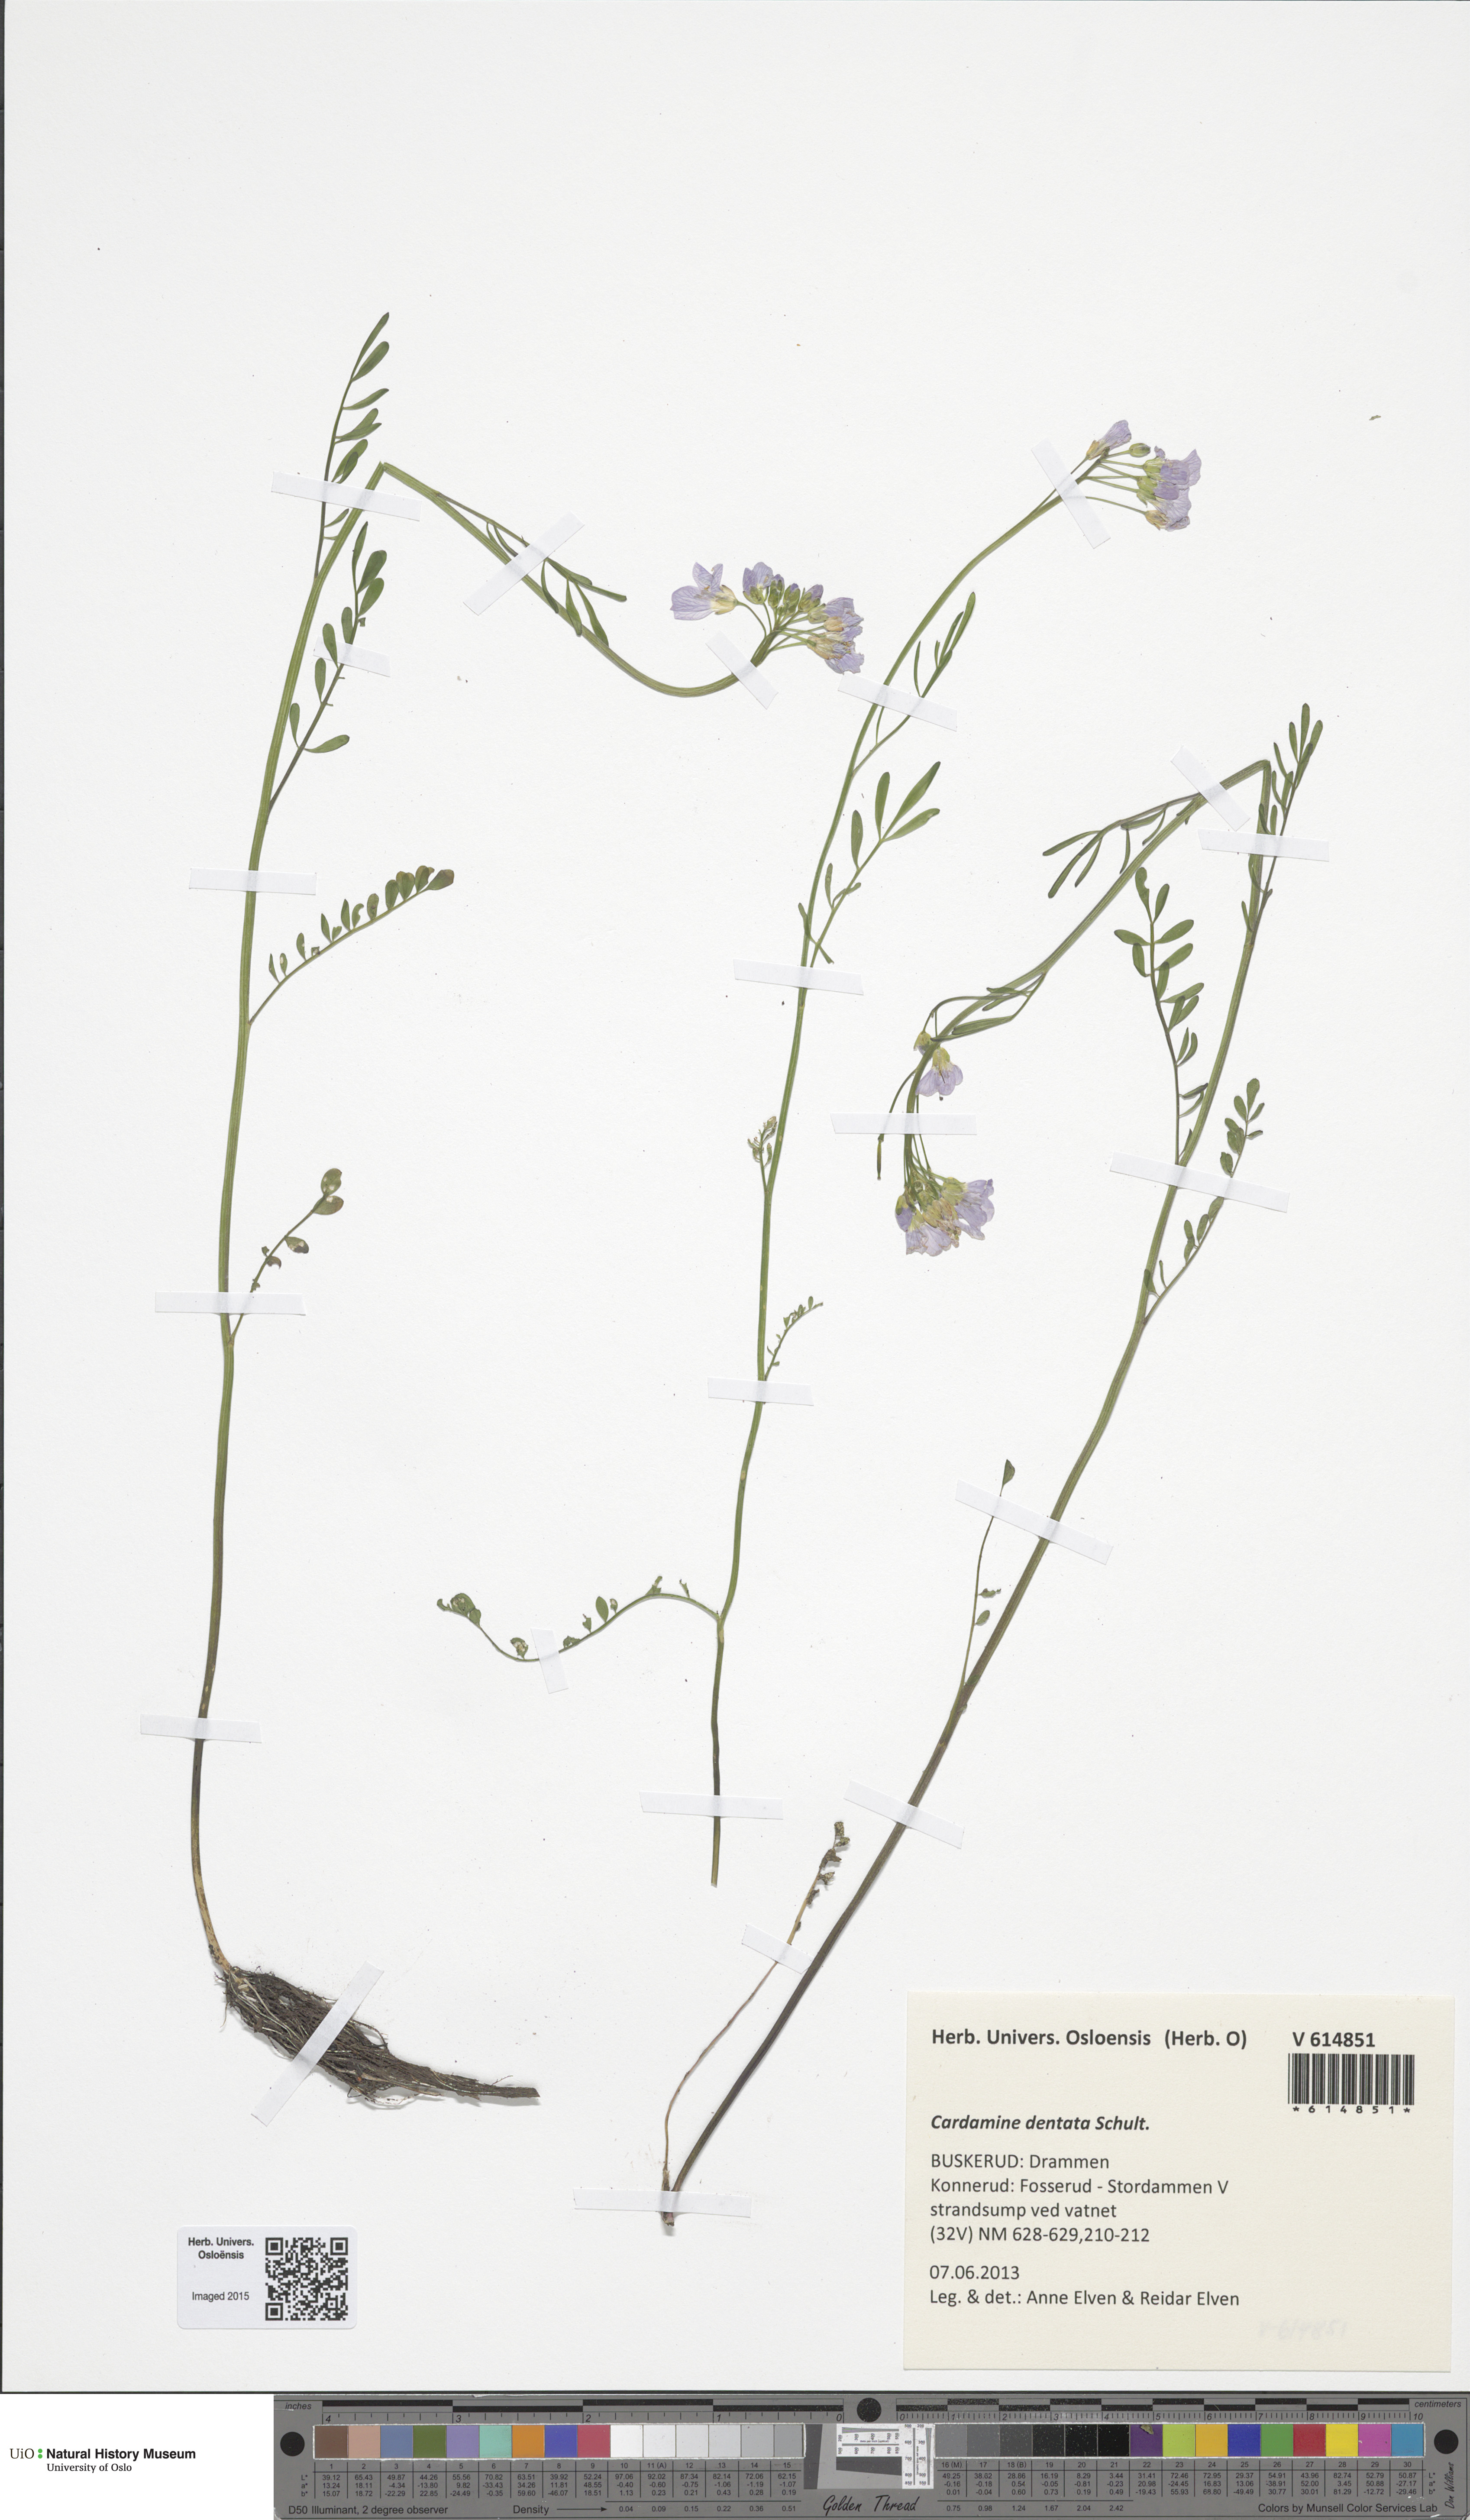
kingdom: Plantae
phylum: Tracheophyta
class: Magnoliopsida
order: Brassicales
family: Brassicaceae
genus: Cardamine
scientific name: Cardamine dentata
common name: Toothed bittercress
